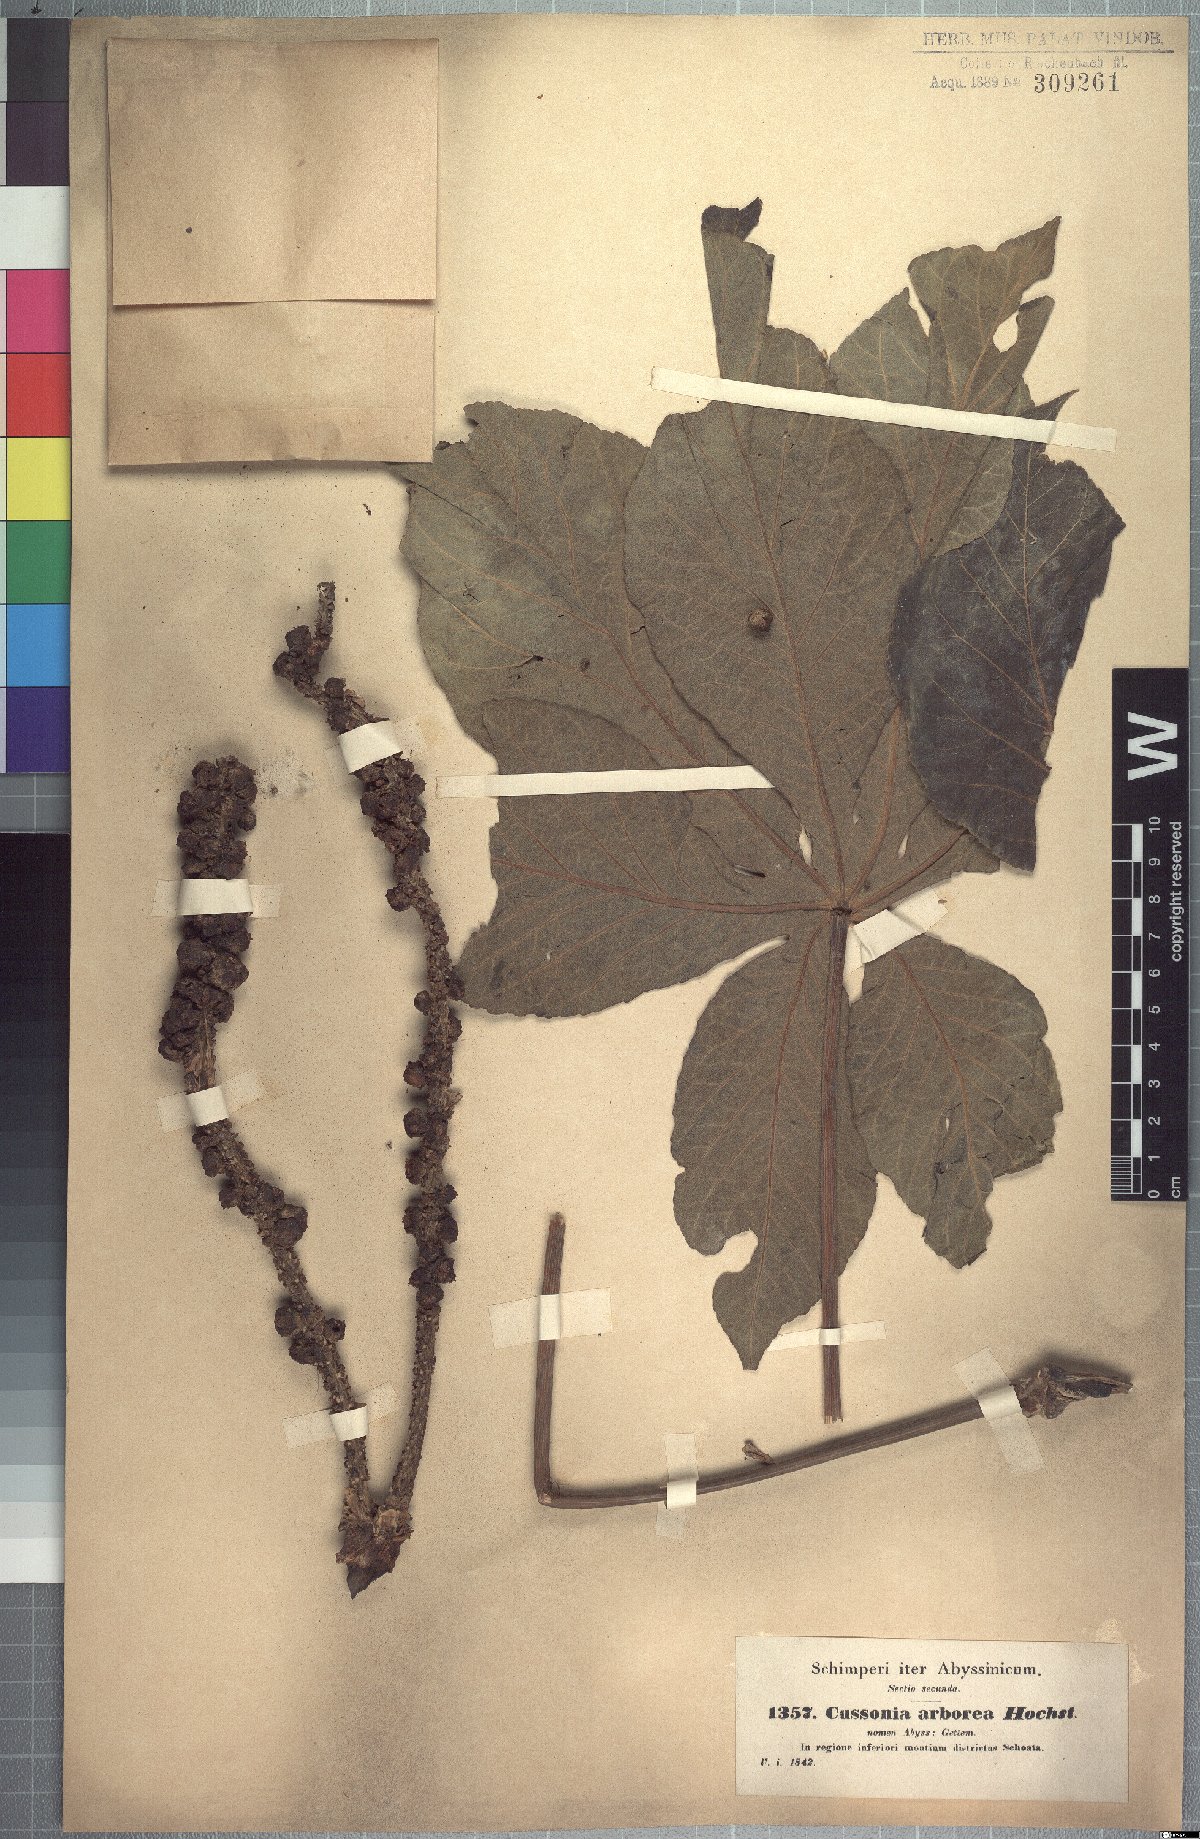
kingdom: Plantae
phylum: Tracheophyta
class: Magnoliopsida
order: Apiales
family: Araliaceae
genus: Cussonia
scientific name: Cussonia arborea
